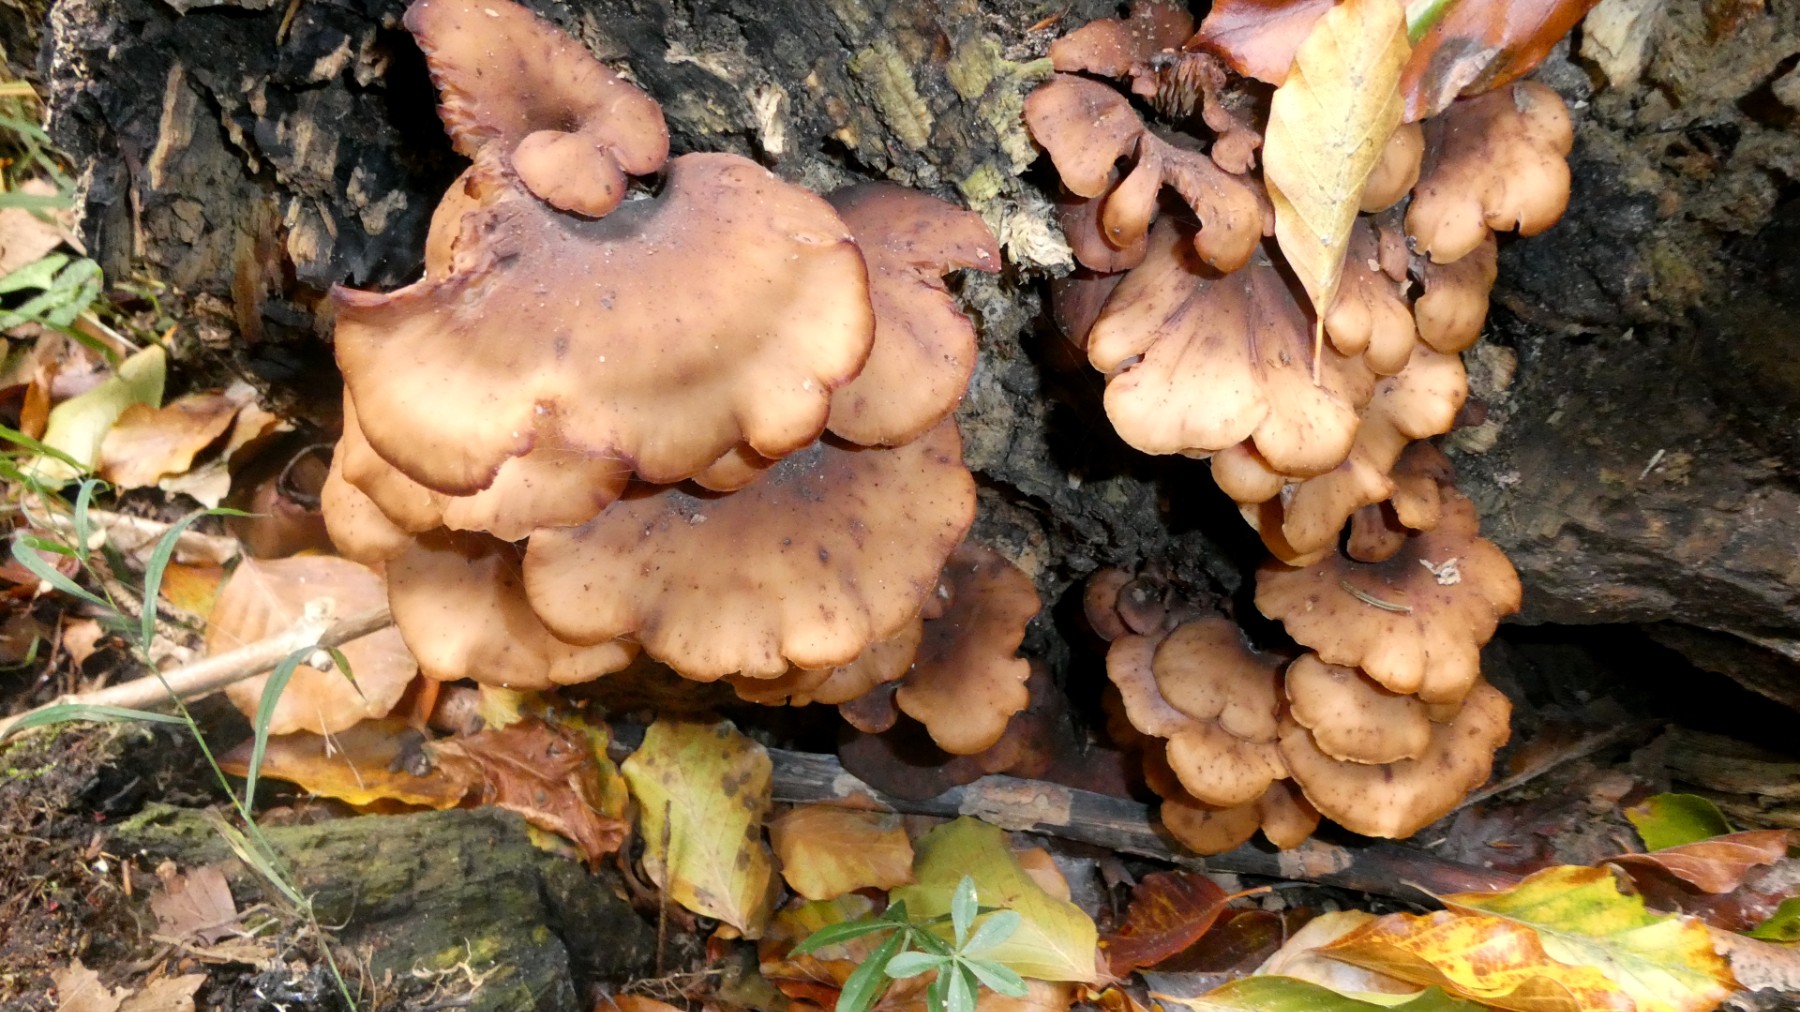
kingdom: Fungi
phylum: Basidiomycota
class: Agaricomycetes
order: Russulales
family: Auriscalpiaceae
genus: Lentinellus
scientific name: Lentinellus cochleatus
